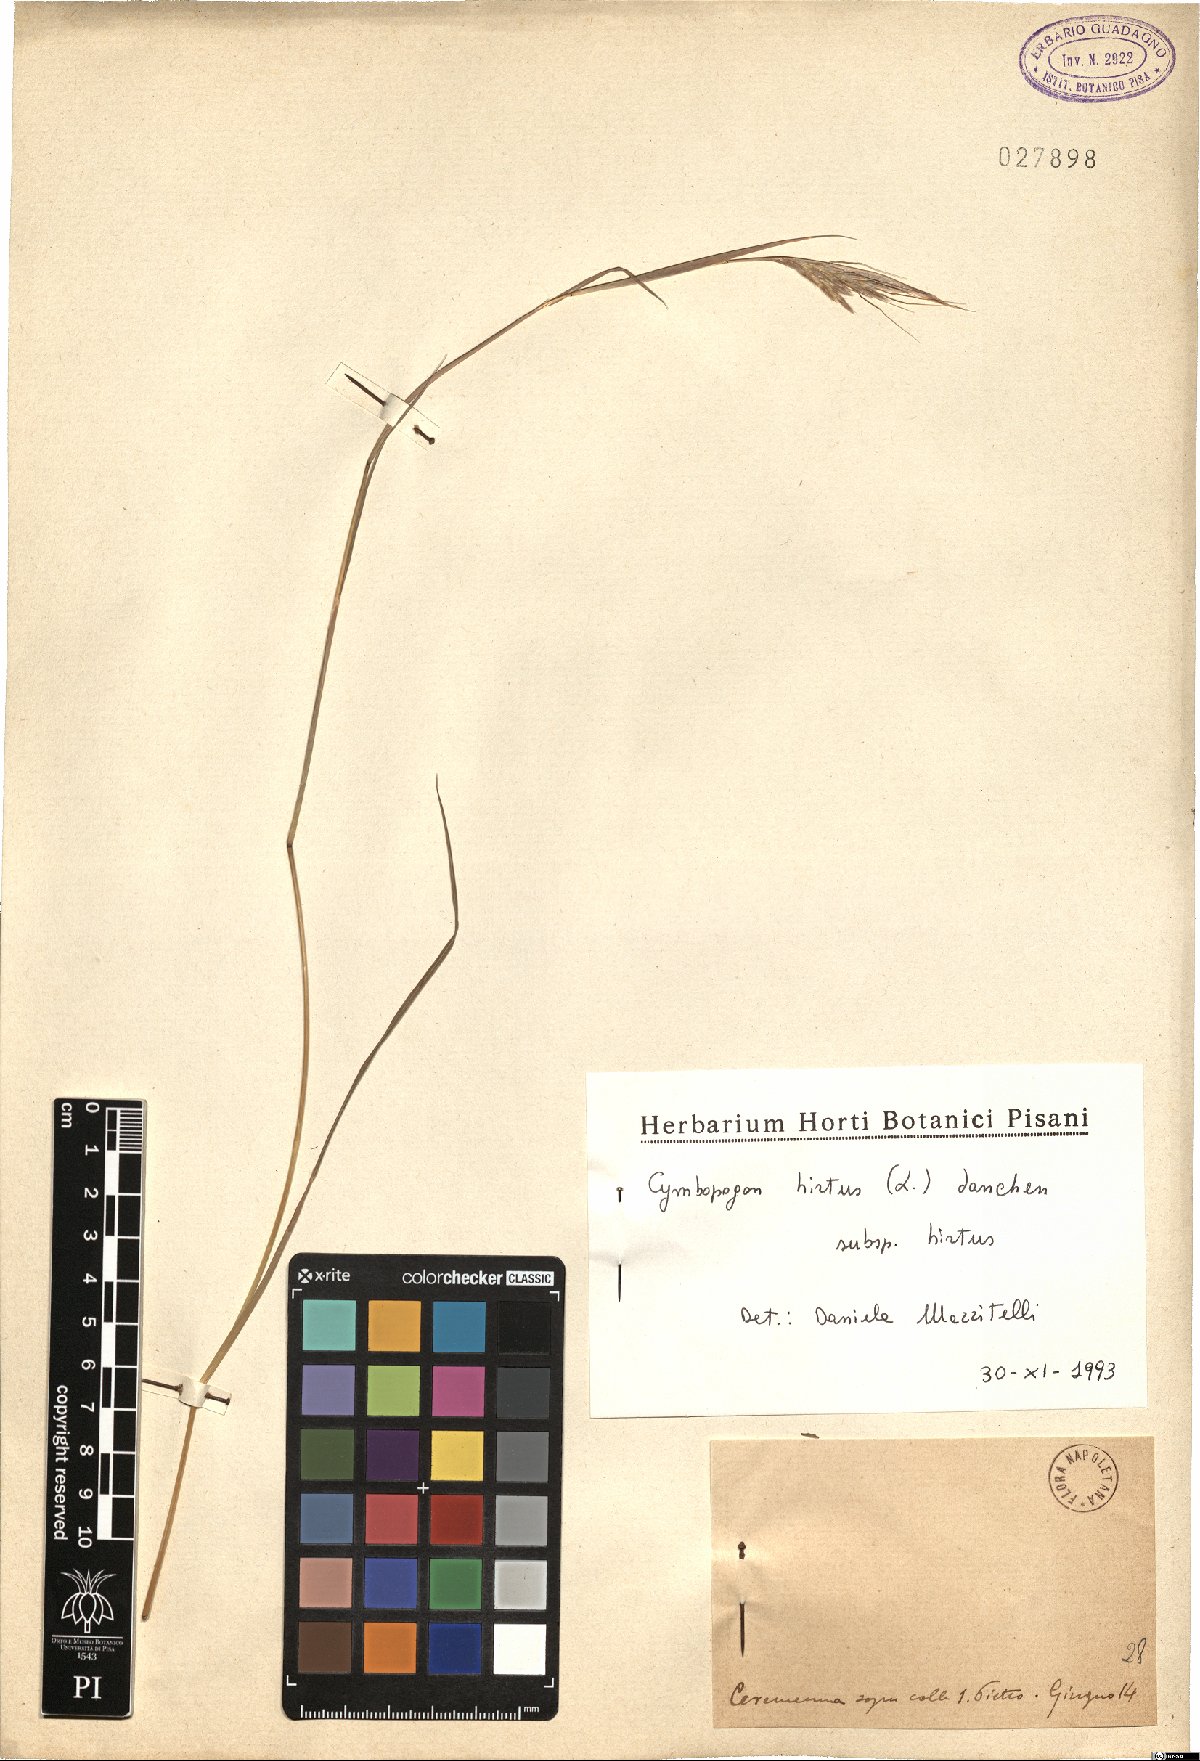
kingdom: Plantae
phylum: Tracheophyta
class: Liliopsida
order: Poales
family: Poaceae
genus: Cymbopogon
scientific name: Cymbopogon hirtus
